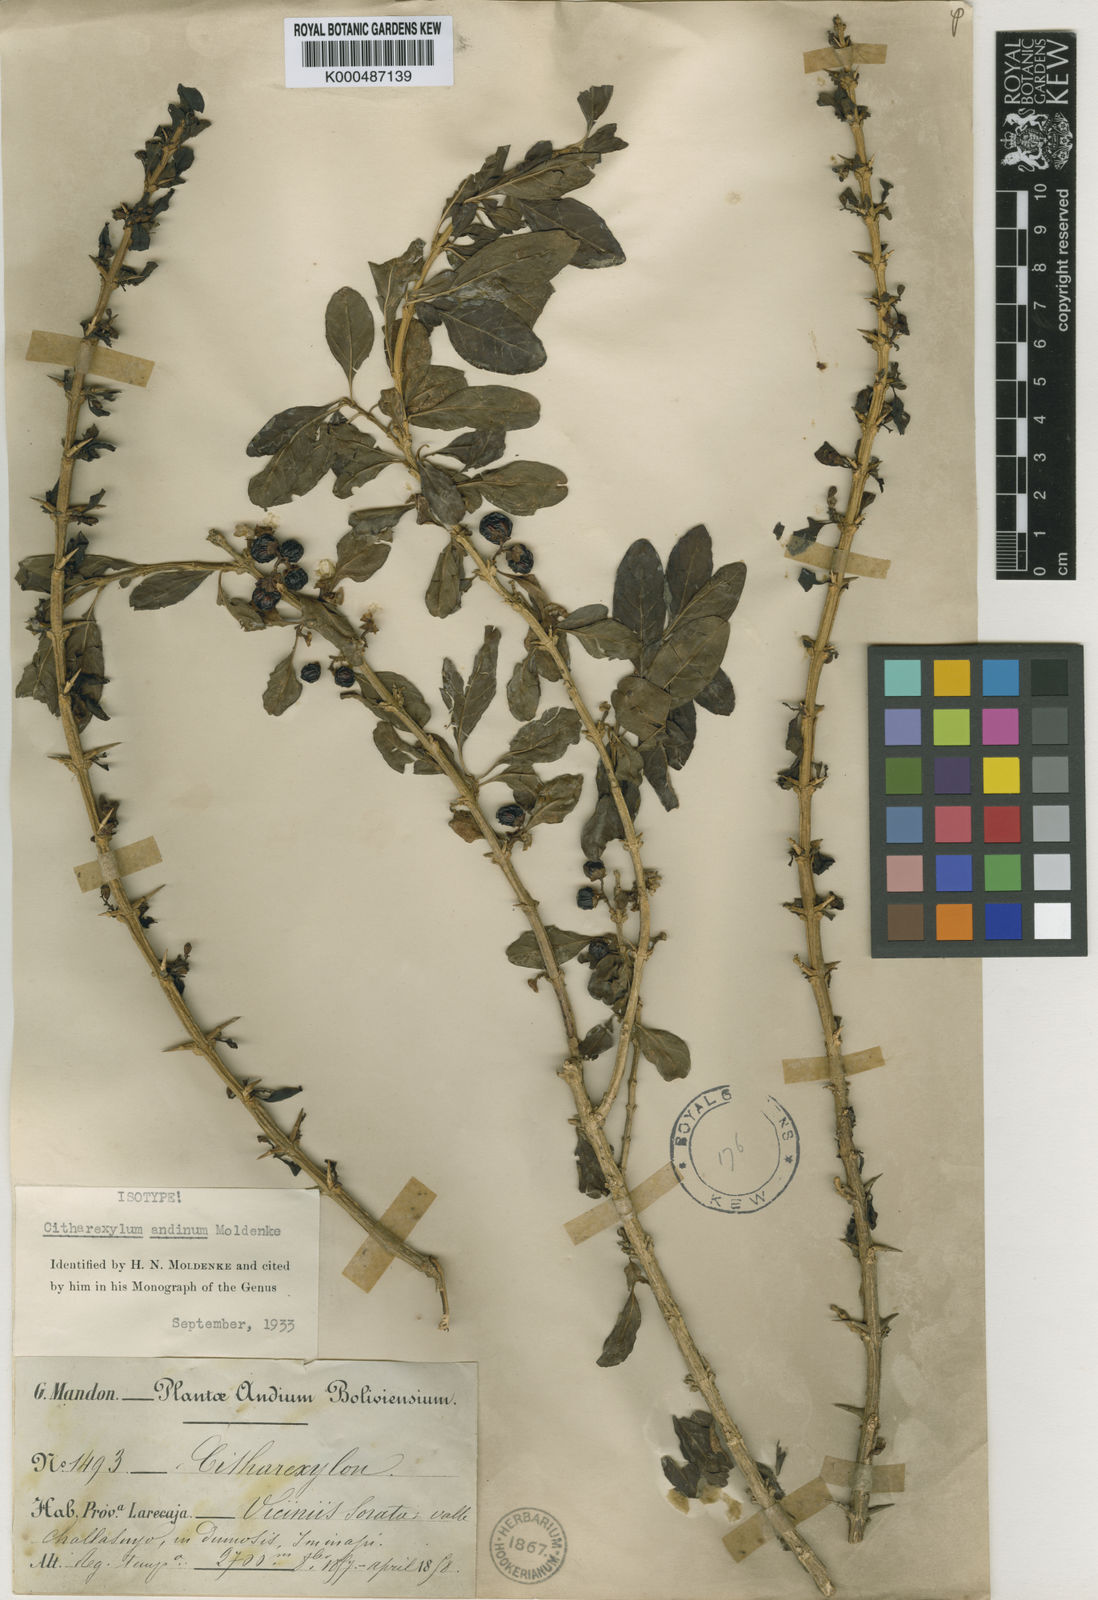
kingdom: Plantae
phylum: Tracheophyta
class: Magnoliopsida
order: Lamiales
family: Verbenaceae
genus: Citharexylum
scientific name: Citharexylum andinum
